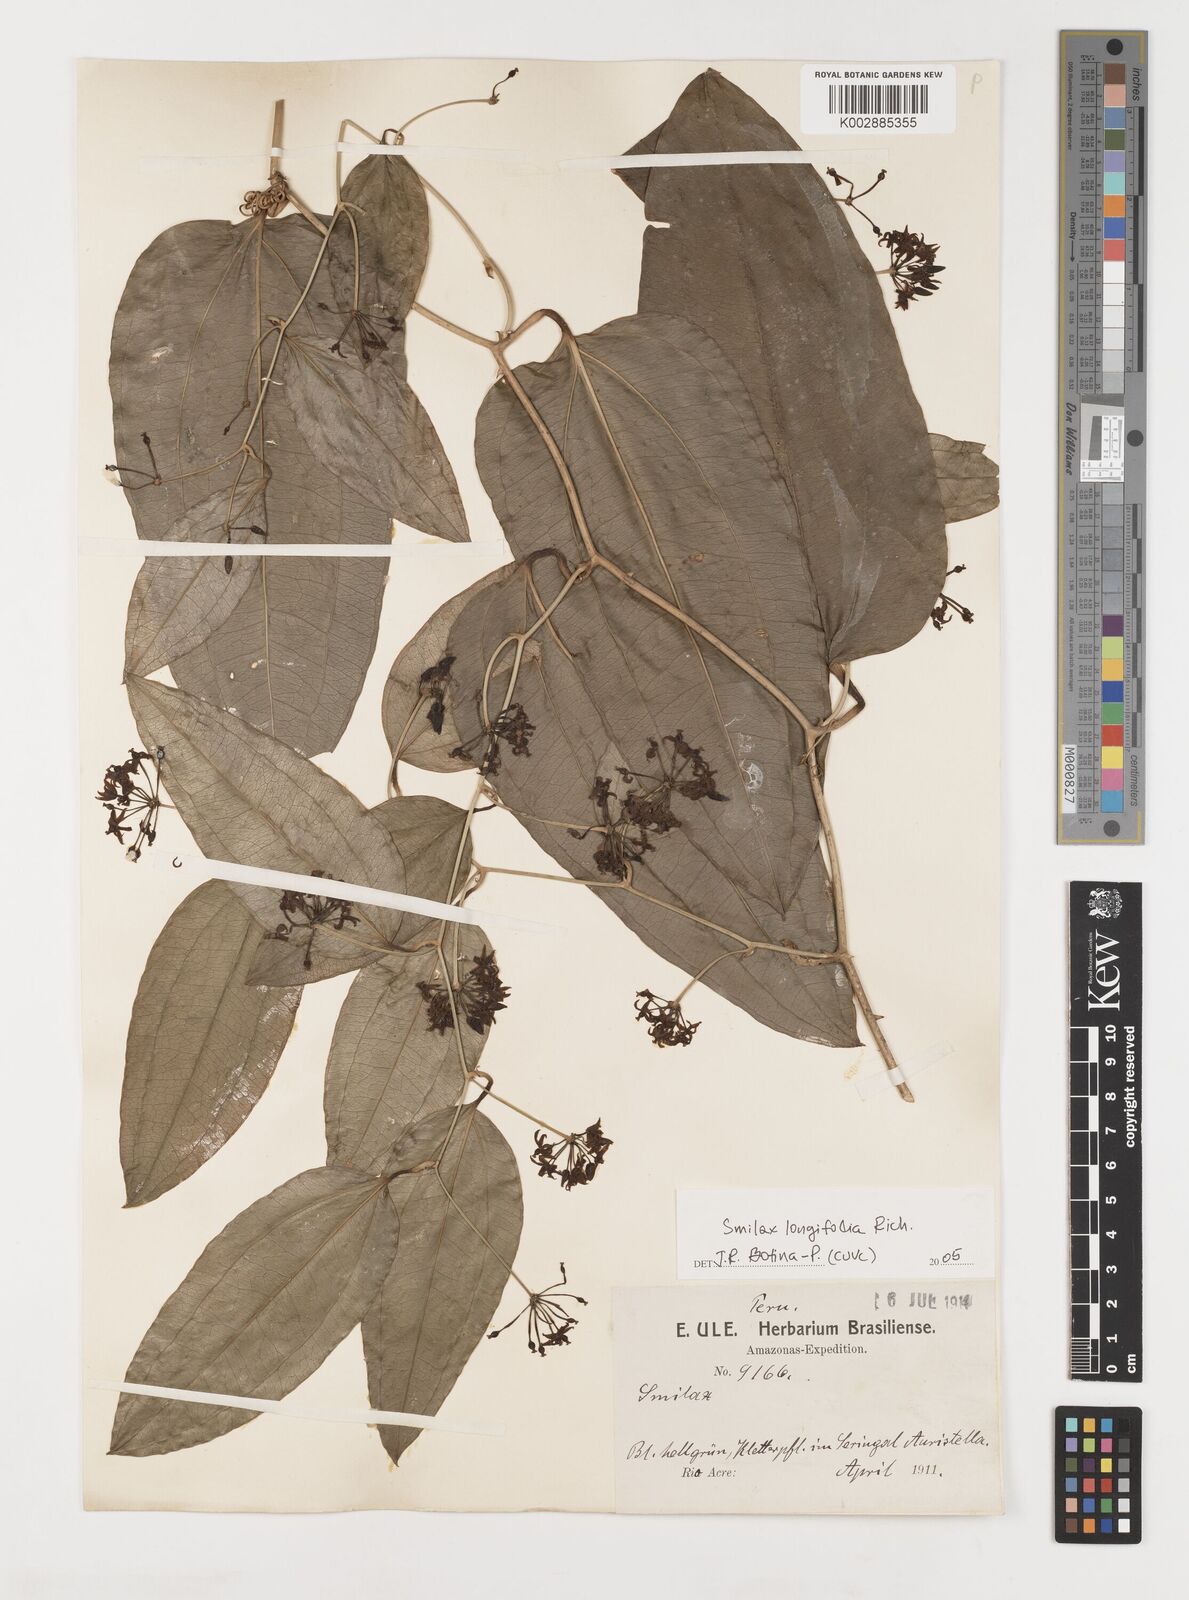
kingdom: Plantae
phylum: Tracheophyta
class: Liliopsida
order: Liliales
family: Smilacaceae
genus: Smilax
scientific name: Smilax longifolia
